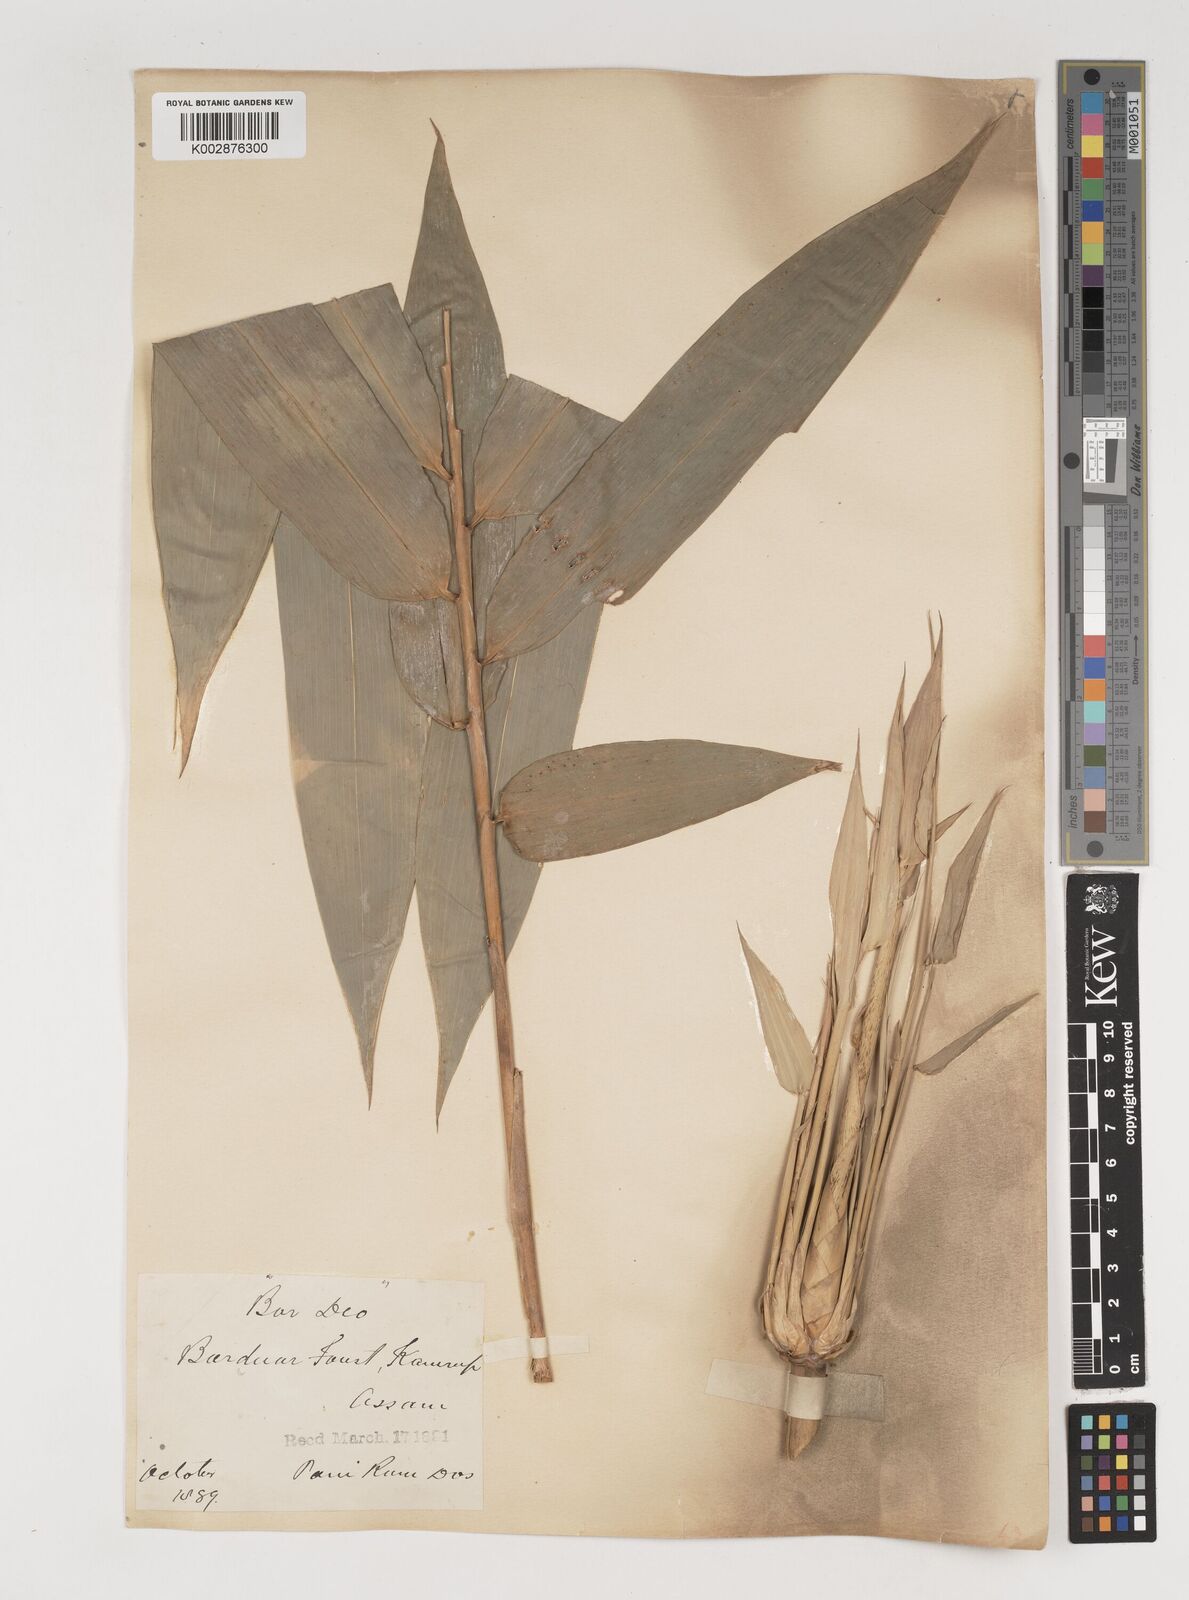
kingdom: Plantae
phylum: Tracheophyta
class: Liliopsida
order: Poales
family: Poaceae
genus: Bambusa
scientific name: Bambusa balcooa
